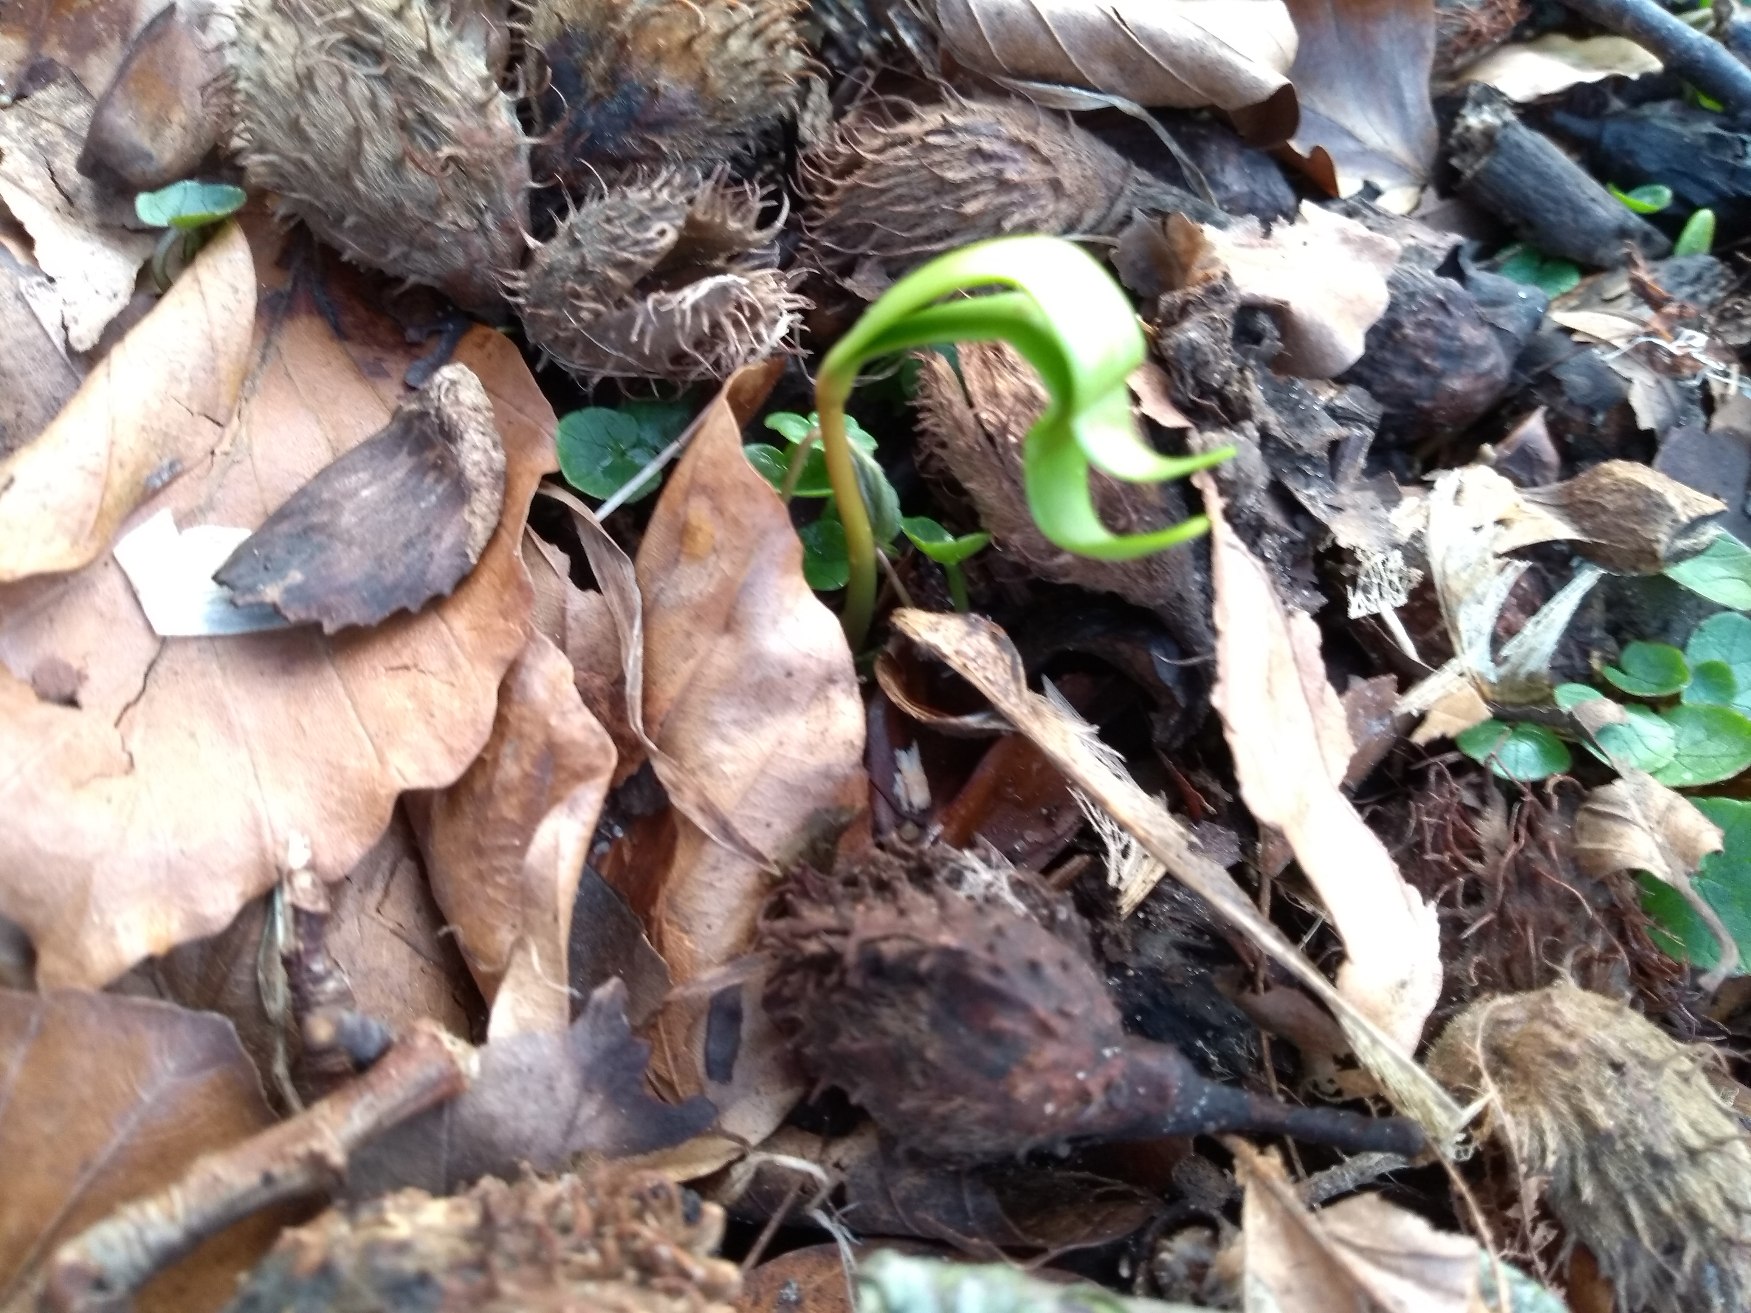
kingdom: Plantae
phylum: Tracheophyta
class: Magnoliopsida
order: Fagales
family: Fagaceae
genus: Fagus
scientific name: Fagus sylvatica
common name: Bøg
